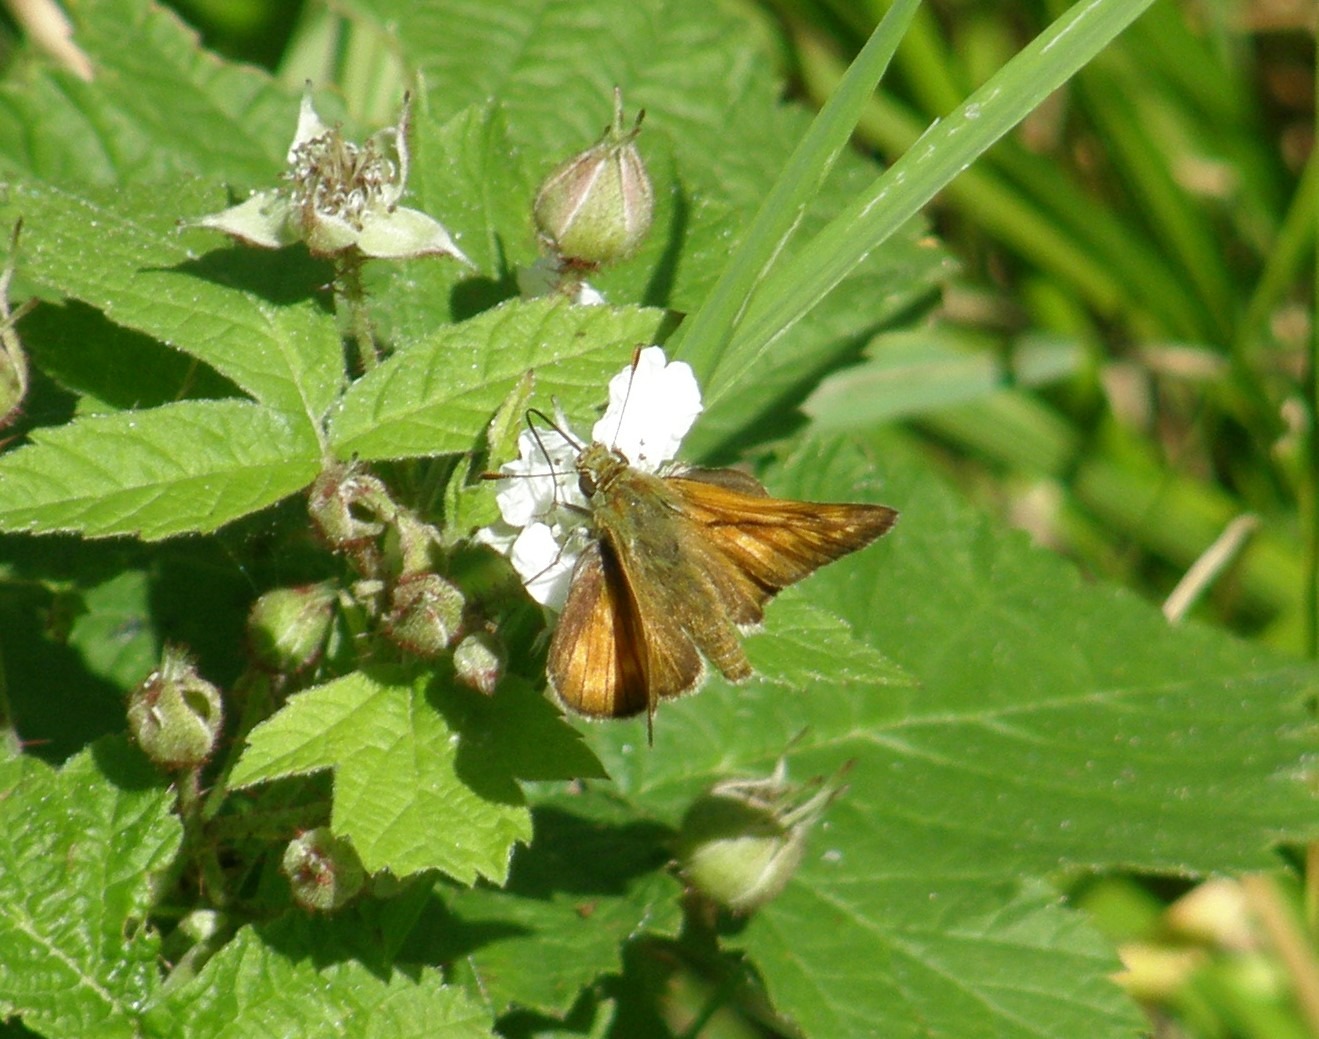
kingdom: Animalia
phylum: Arthropoda
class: Insecta
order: Lepidoptera
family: Hesperiidae
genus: Ochlodes
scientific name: Ochlodes venata
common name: Stor bredpande
